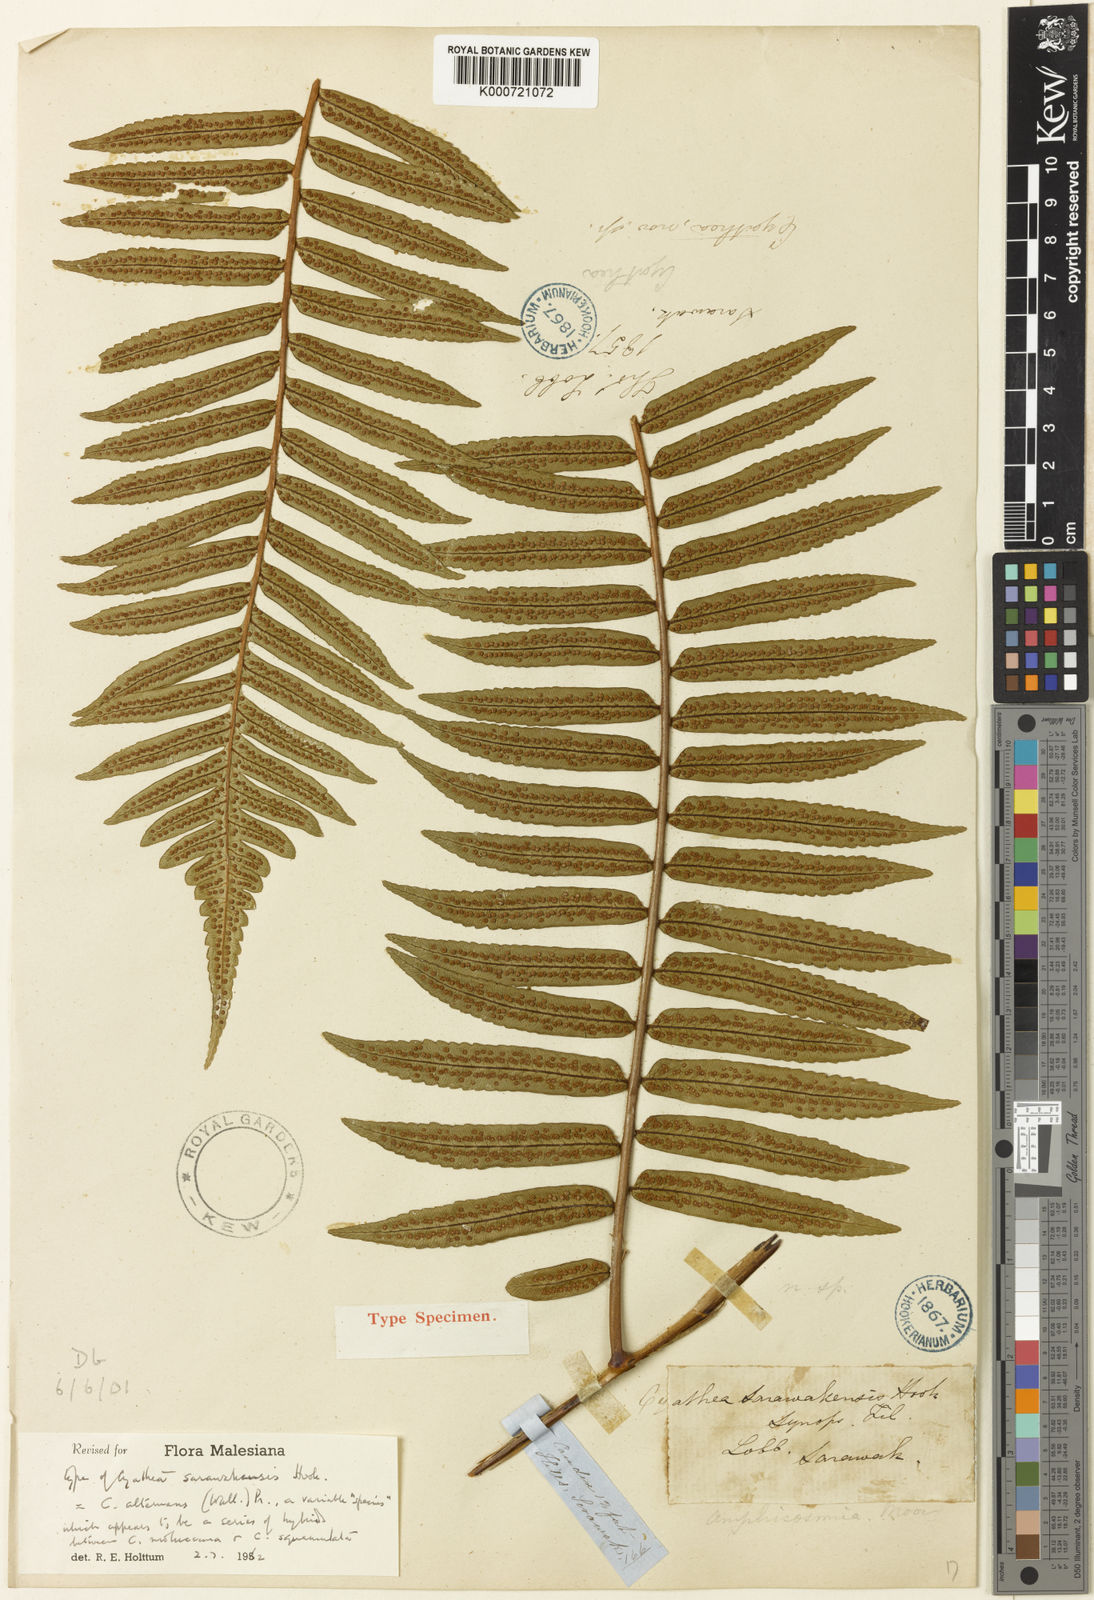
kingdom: Plantae
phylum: Tracheophyta
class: Polypodiopsida
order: Cyatheales
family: Cyatheaceae
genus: Alsophila
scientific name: Alsophila alternans
